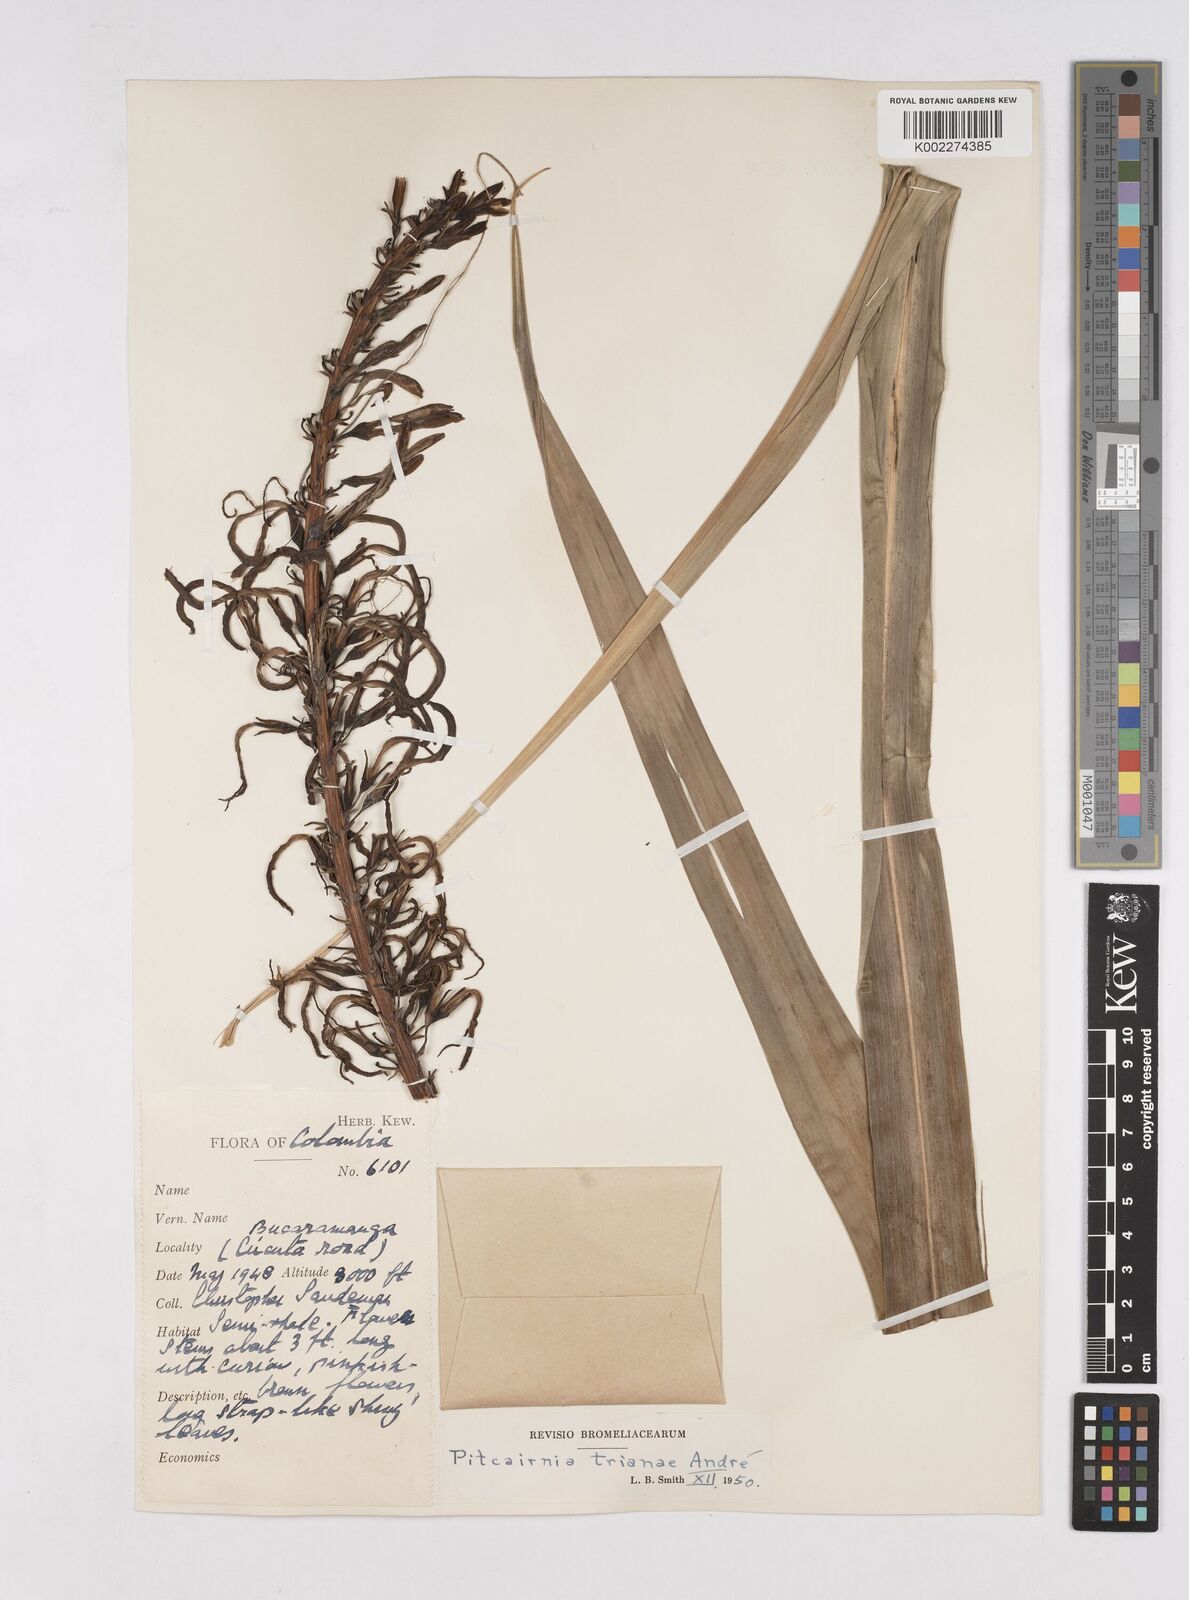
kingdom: Plantae
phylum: Tracheophyta
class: Liliopsida
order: Poales
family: Bromeliaceae
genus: Pitcairnia
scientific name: Pitcairnia trianae
